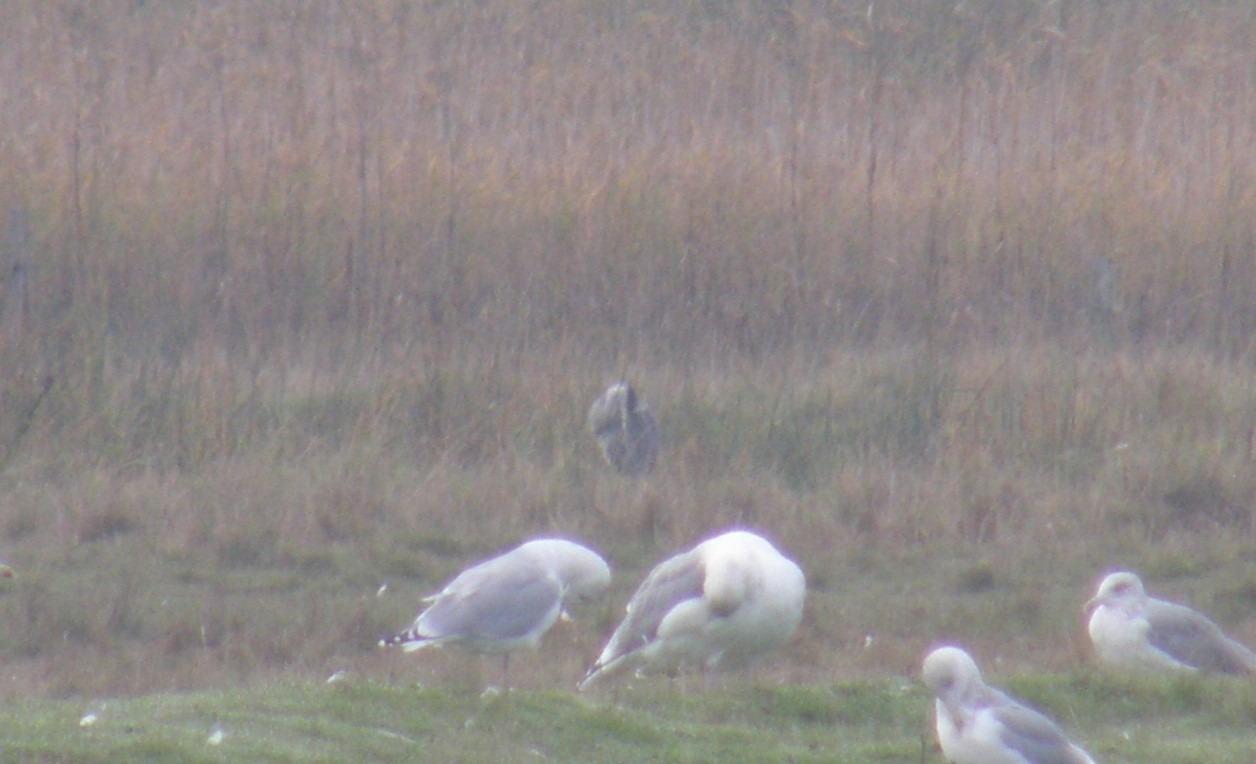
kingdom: Animalia
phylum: Chordata
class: Aves
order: Pelecaniformes
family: Ardeidae
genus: Ardea
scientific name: Ardea cinerea
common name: Fiskehejre
